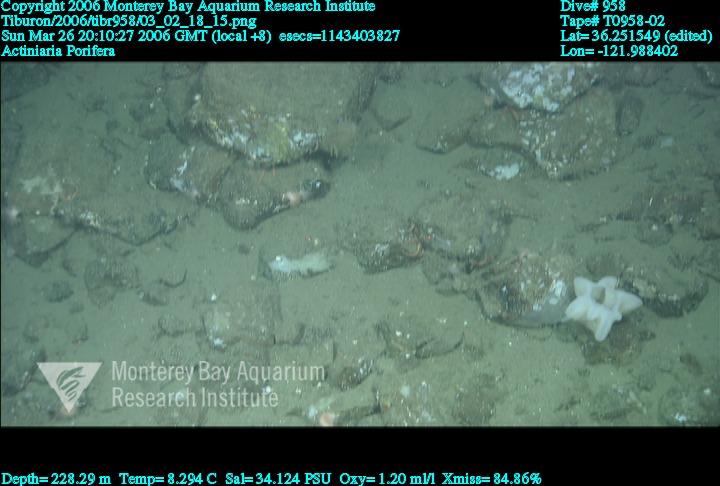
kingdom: Animalia
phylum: Porifera
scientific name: Porifera
